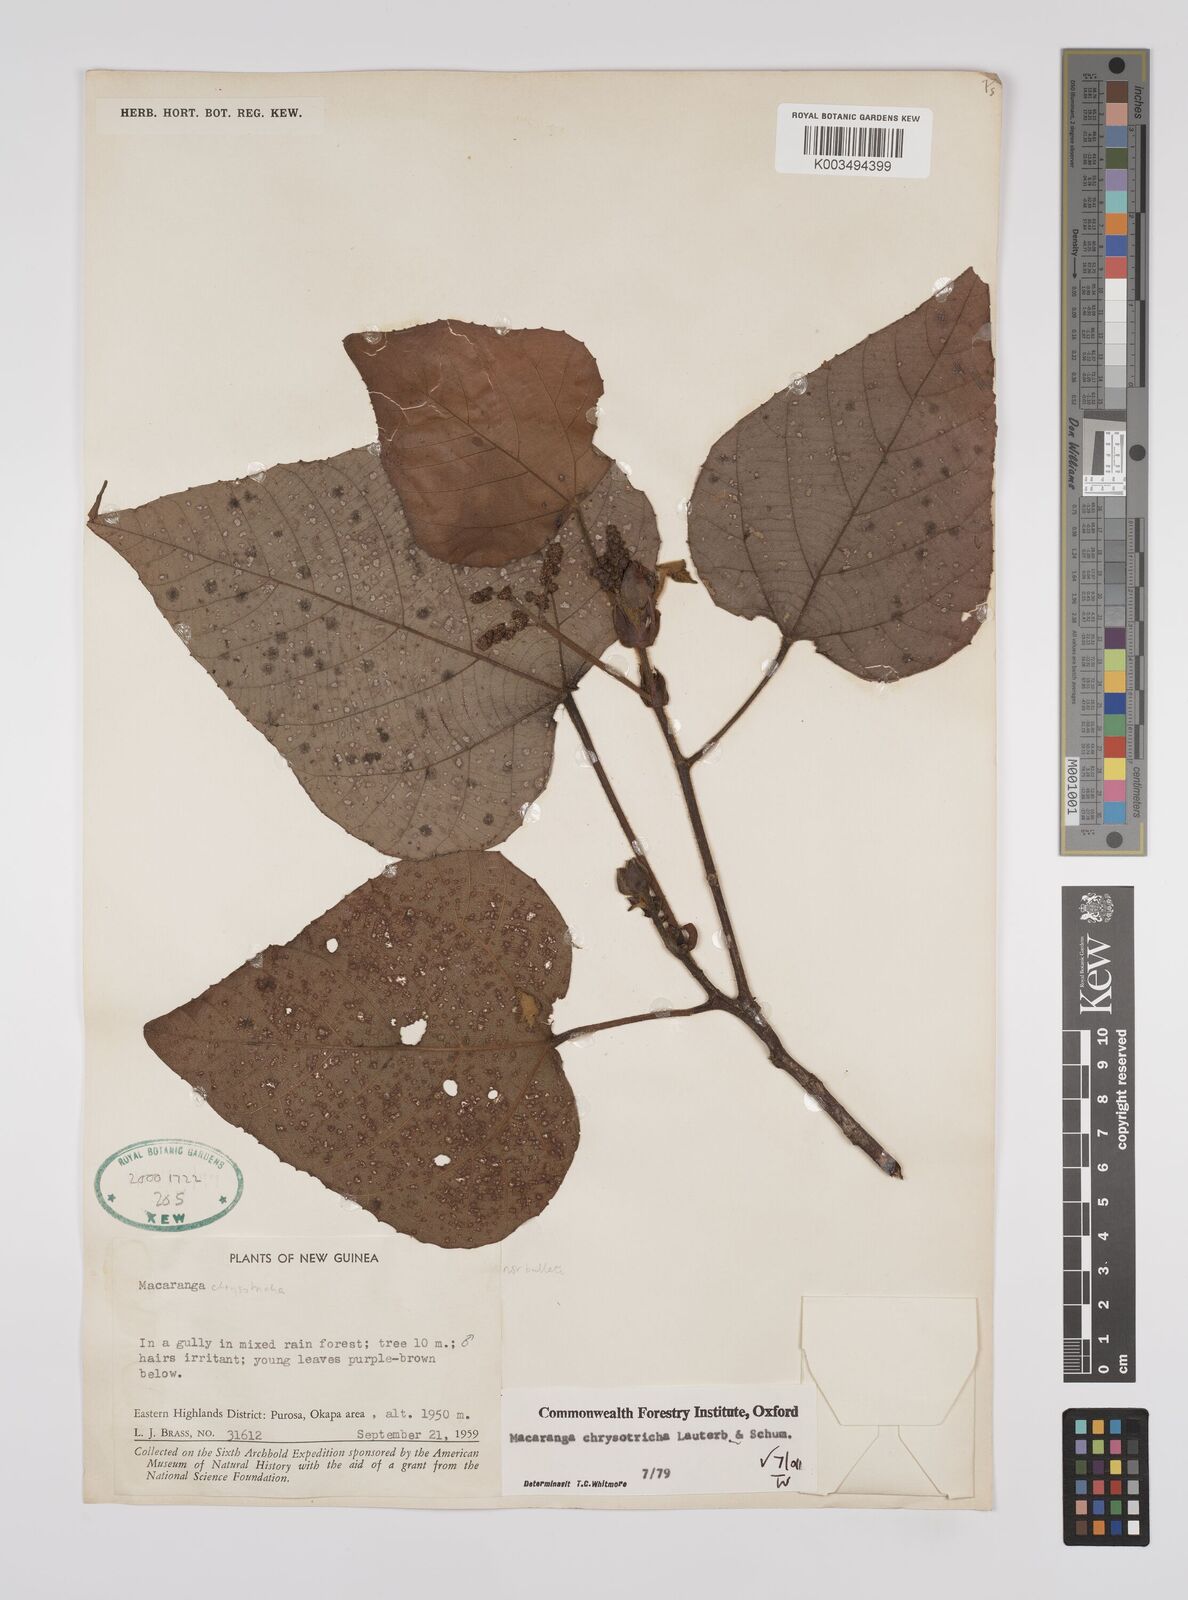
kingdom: Plantae
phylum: Tracheophyta
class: Magnoliopsida
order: Malpighiales
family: Euphorbiaceae
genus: Macaranga
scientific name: Macaranga chrysotricha
